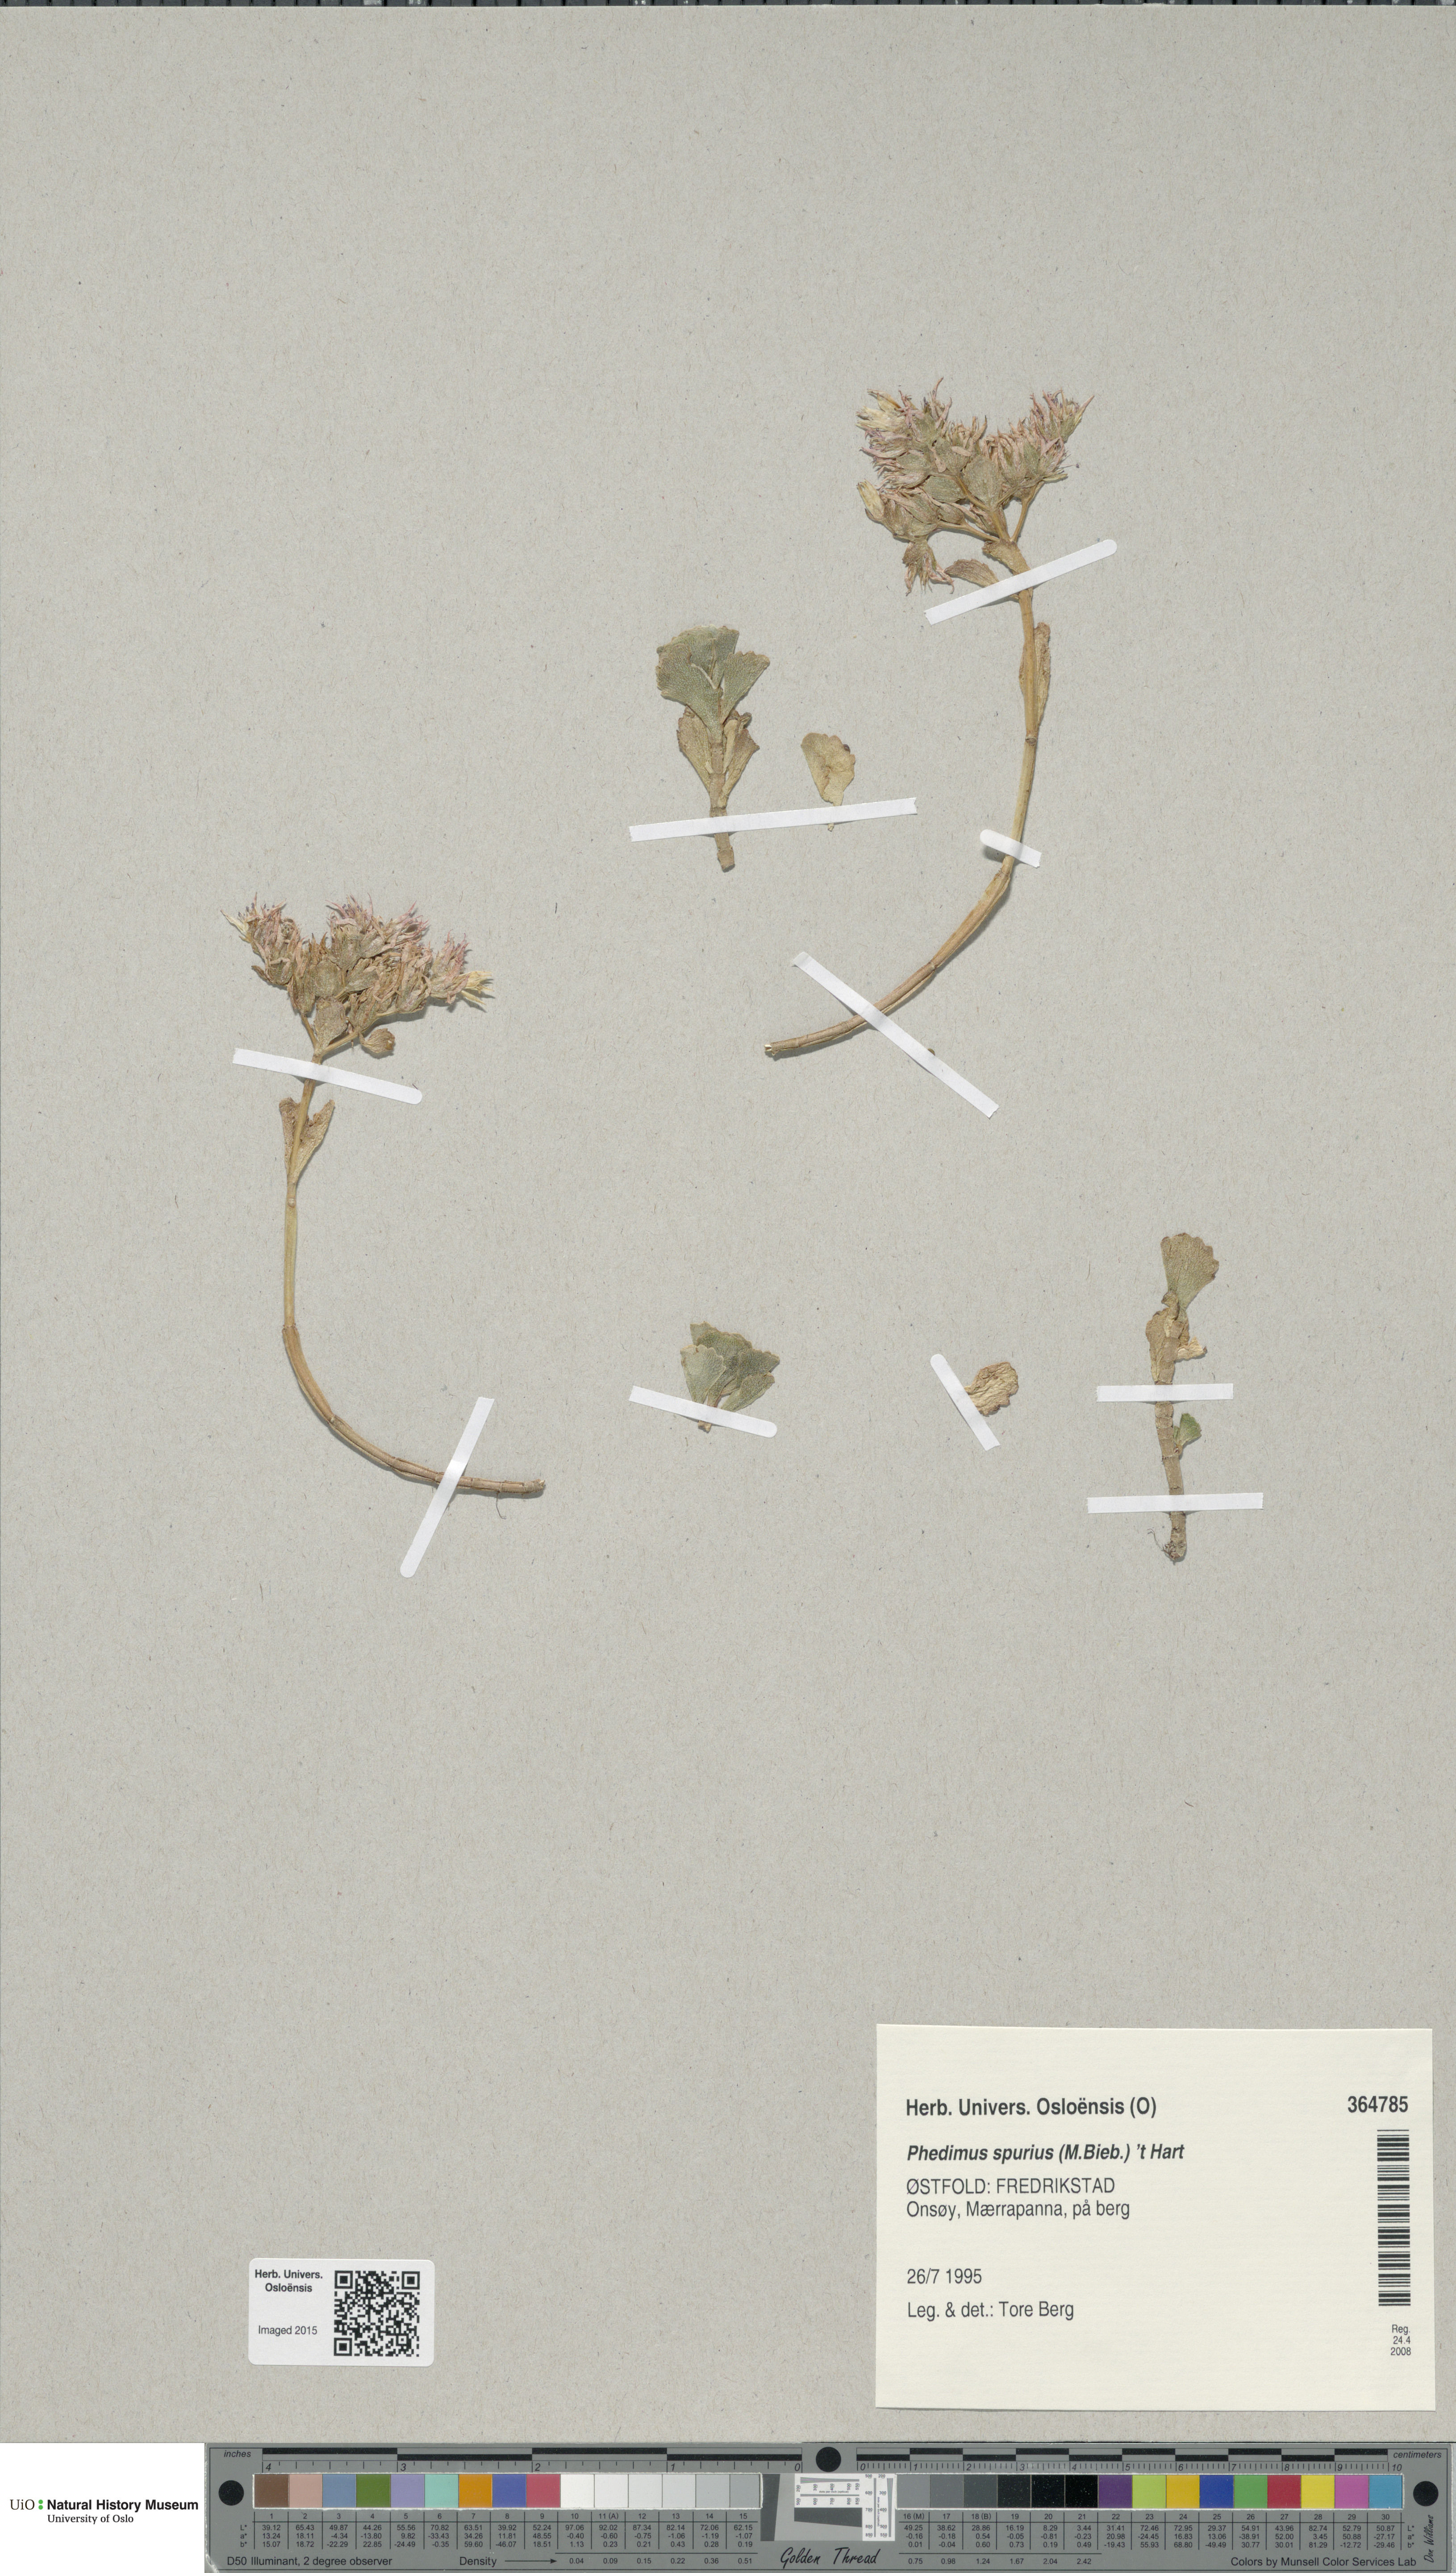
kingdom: Plantae
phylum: Tracheophyta
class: Magnoliopsida
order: Saxifragales
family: Crassulaceae
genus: Phedimus
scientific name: Phedimus spurius
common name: Caucasian stonecrop
